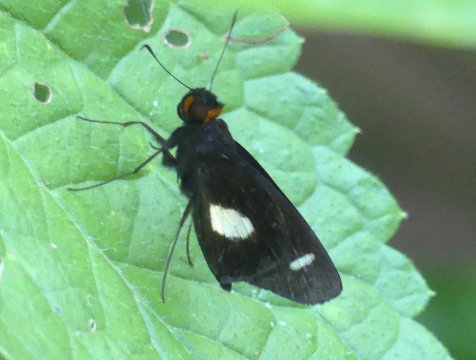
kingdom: Animalia
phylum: Arthropoda
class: Insecta
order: Lepidoptera
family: Hesperiidae
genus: Cobalus
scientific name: Cobalus calvina
